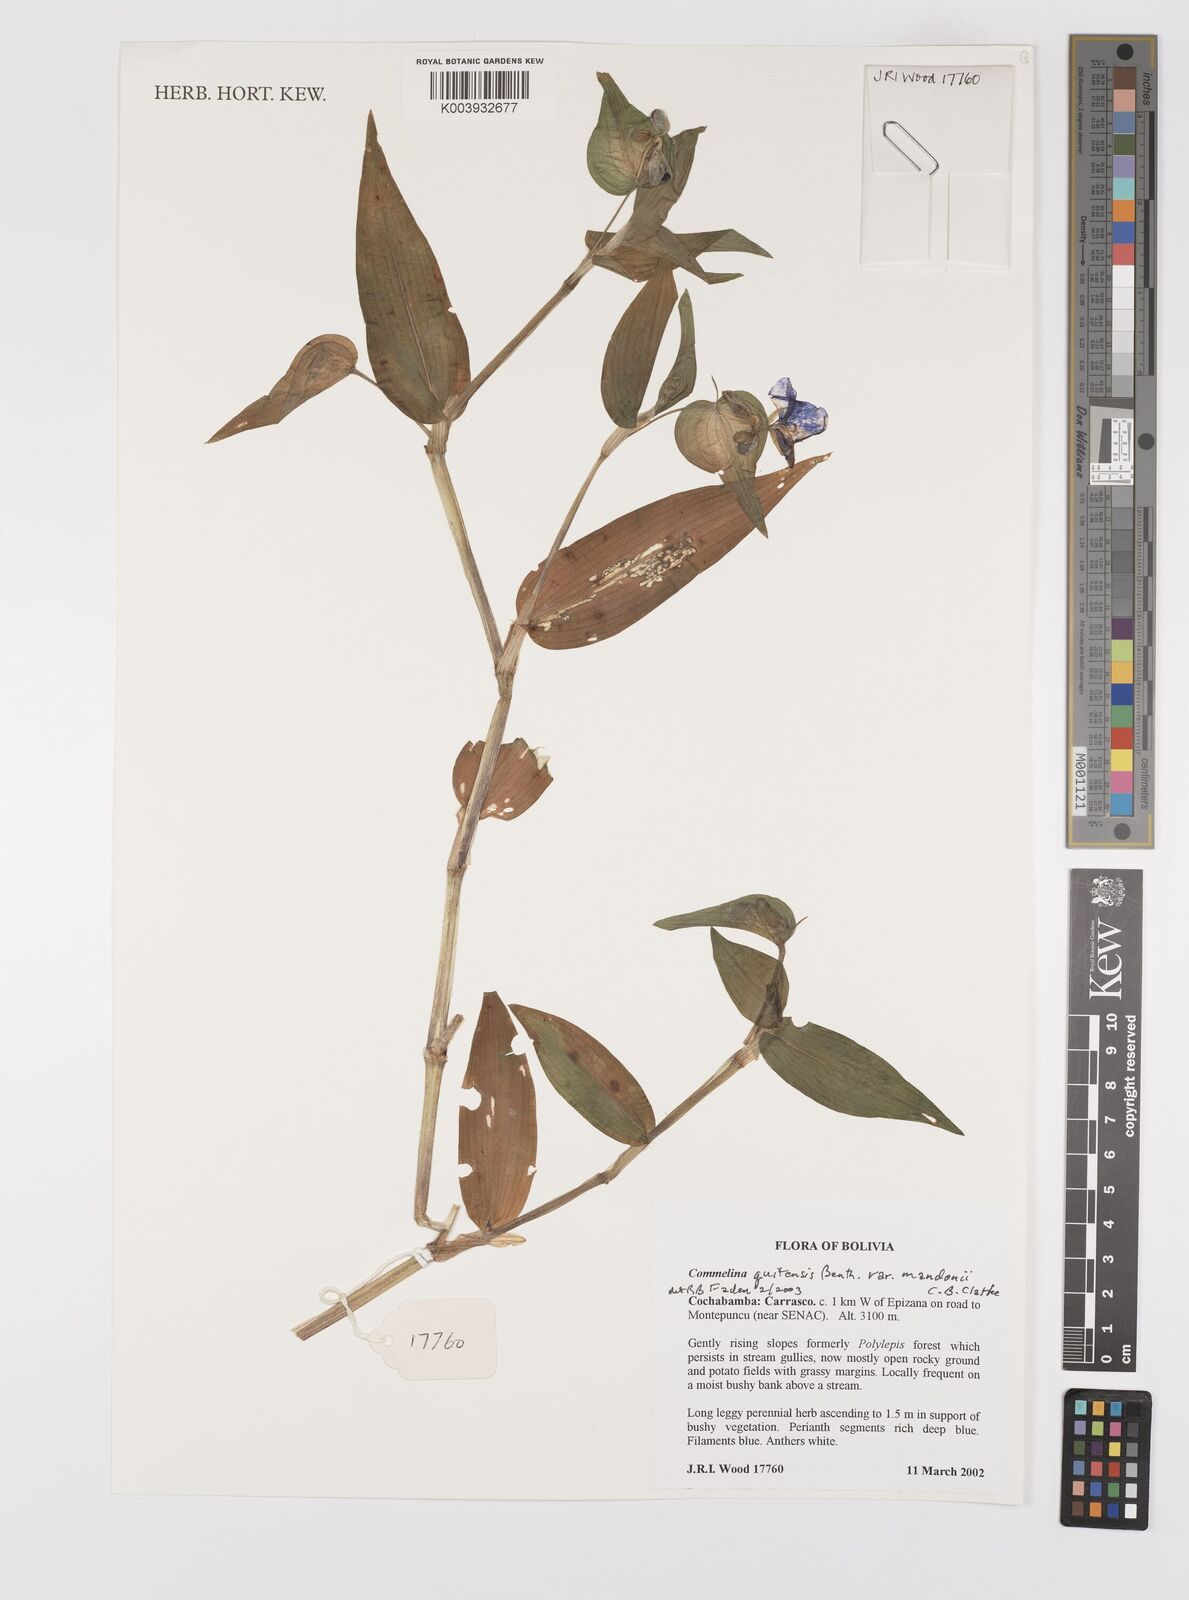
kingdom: Plantae
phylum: Tracheophyta
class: Liliopsida
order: Commelinales
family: Commelinaceae
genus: Commelina
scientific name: Commelina tuberosa
